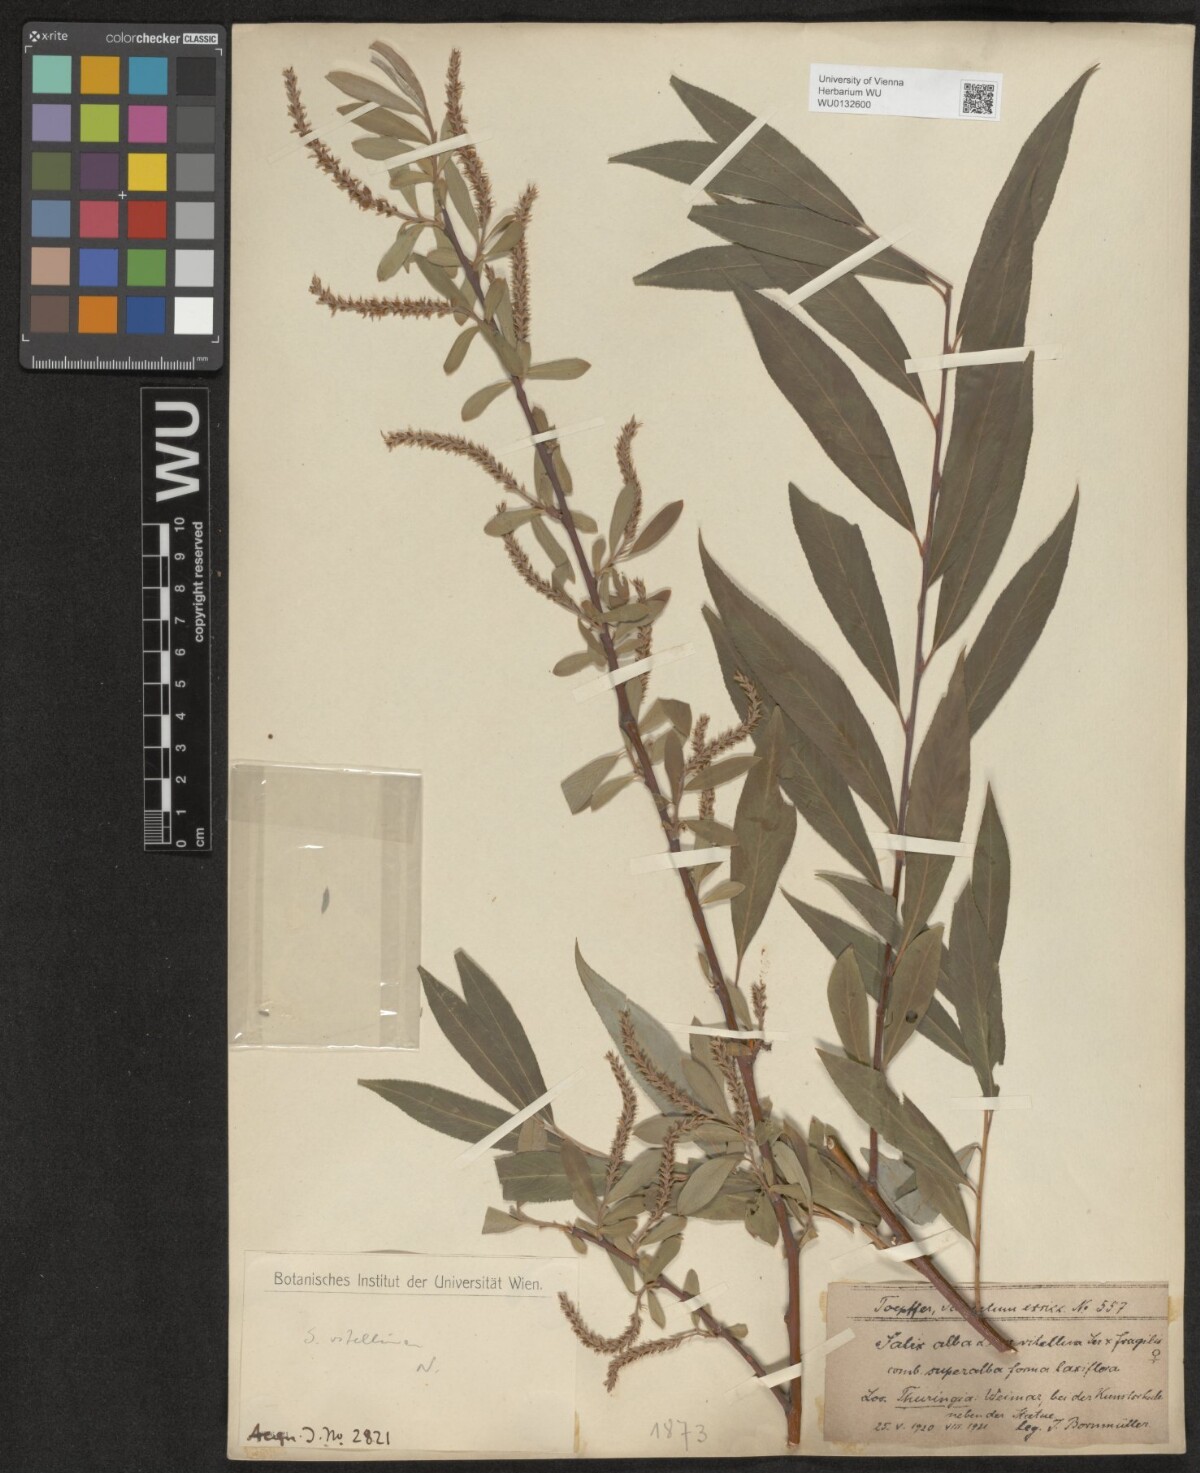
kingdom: Plantae
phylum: Tracheophyta
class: Magnoliopsida
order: Malpighiales
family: Salicaceae
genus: Salix
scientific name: Salix alba
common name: White willow
